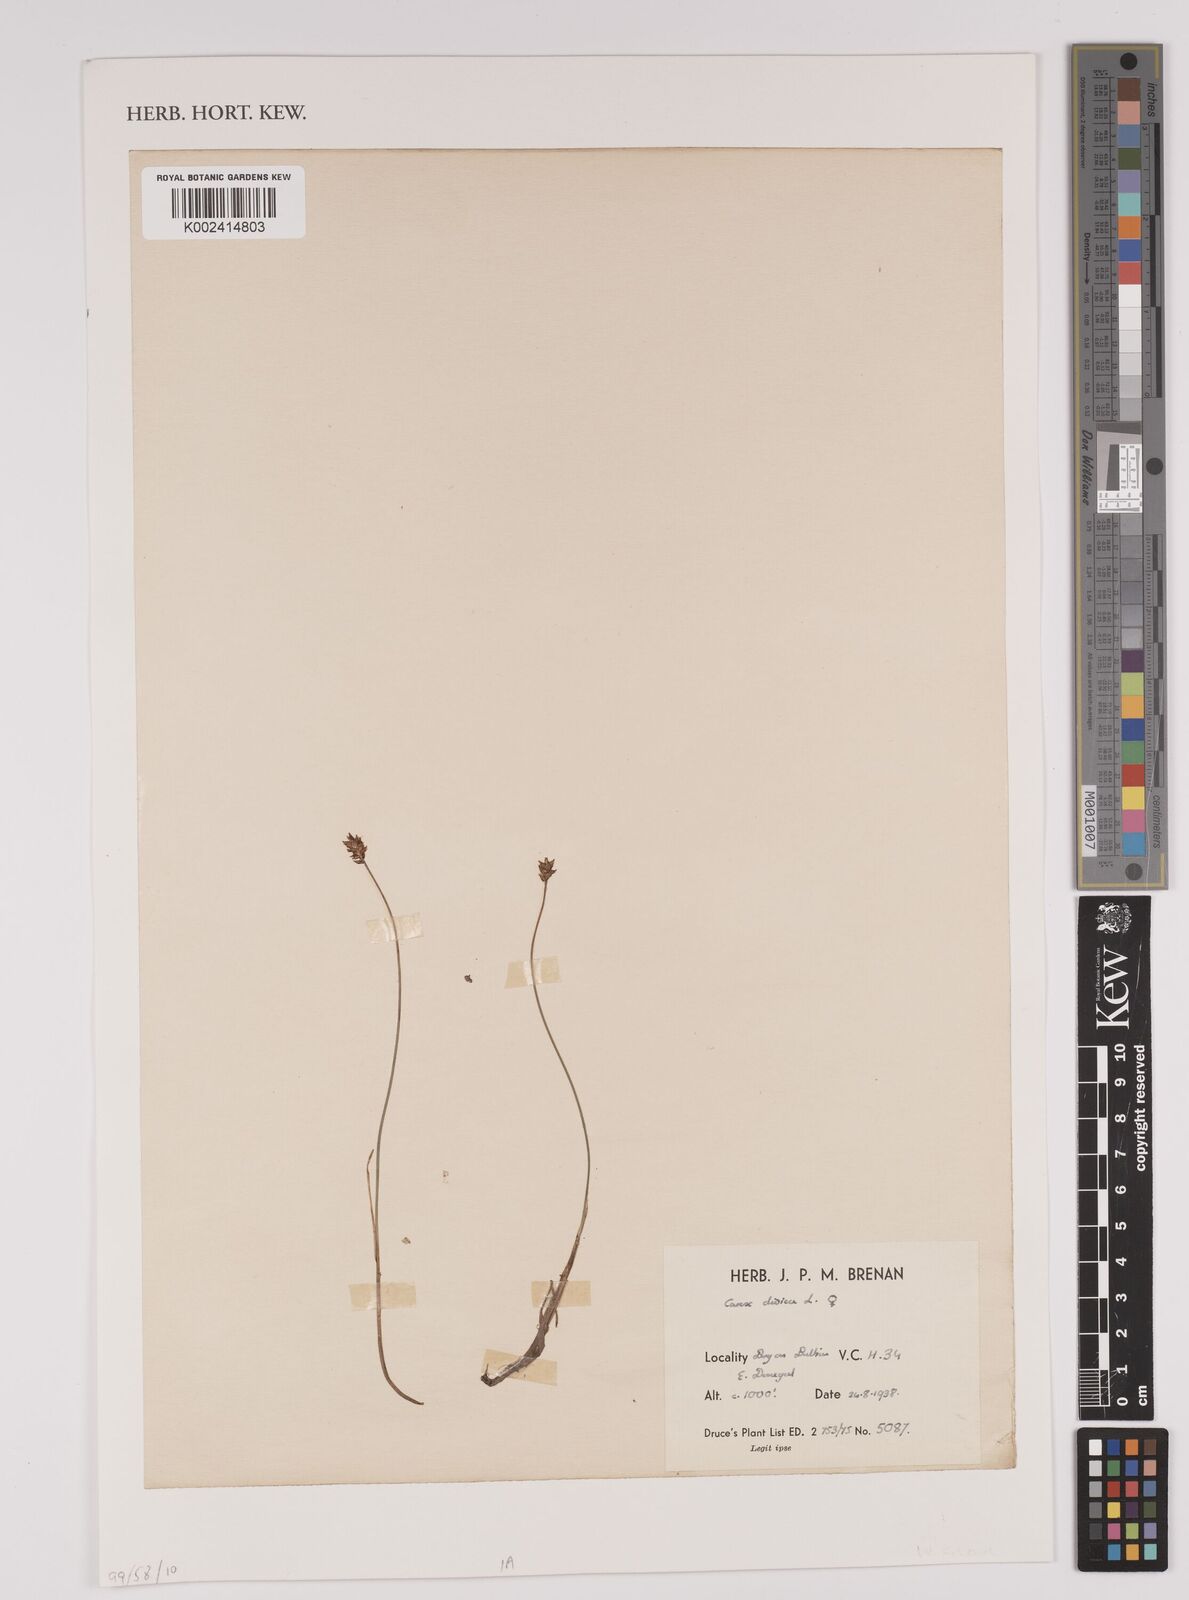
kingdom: Plantae
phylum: Tracheophyta
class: Liliopsida
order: Poales
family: Cyperaceae
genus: Carex
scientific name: Carex dioica
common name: Dioecious sedge
